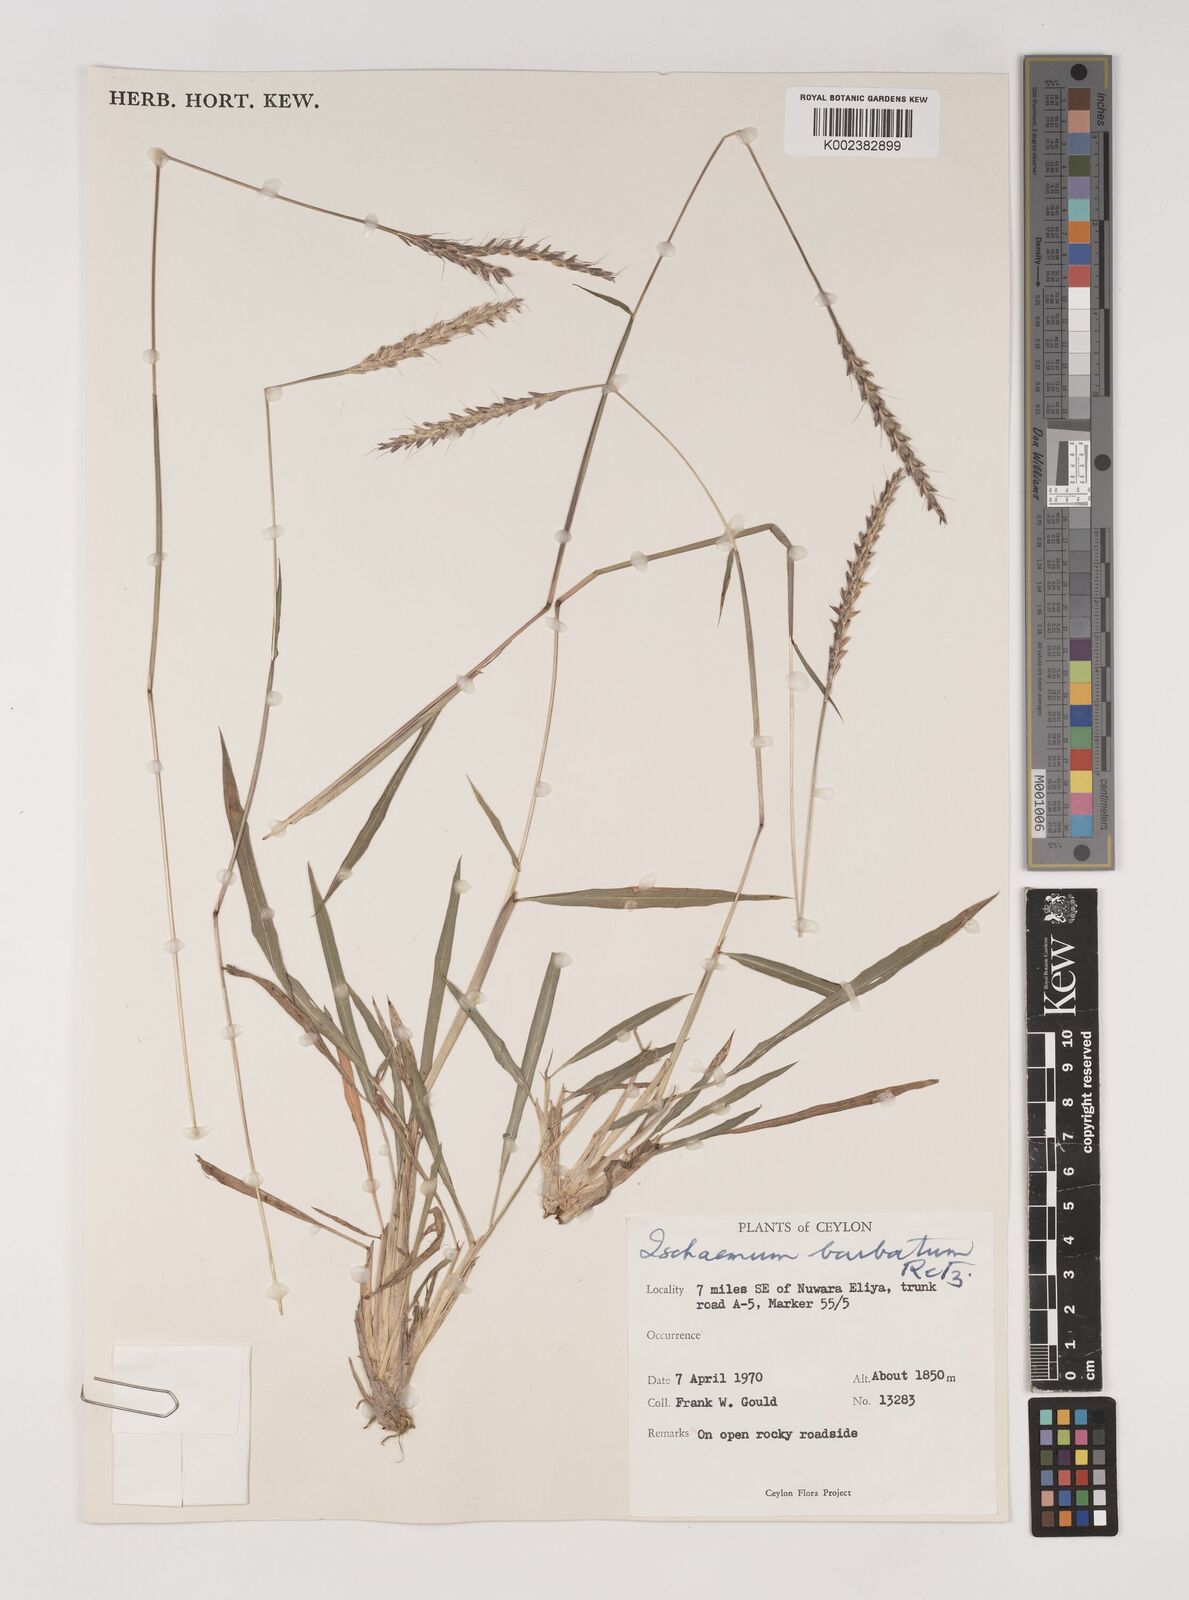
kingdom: Plantae
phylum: Tracheophyta
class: Liliopsida
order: Poales
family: Poaceae
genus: Ischaemum
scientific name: Ischaemum
